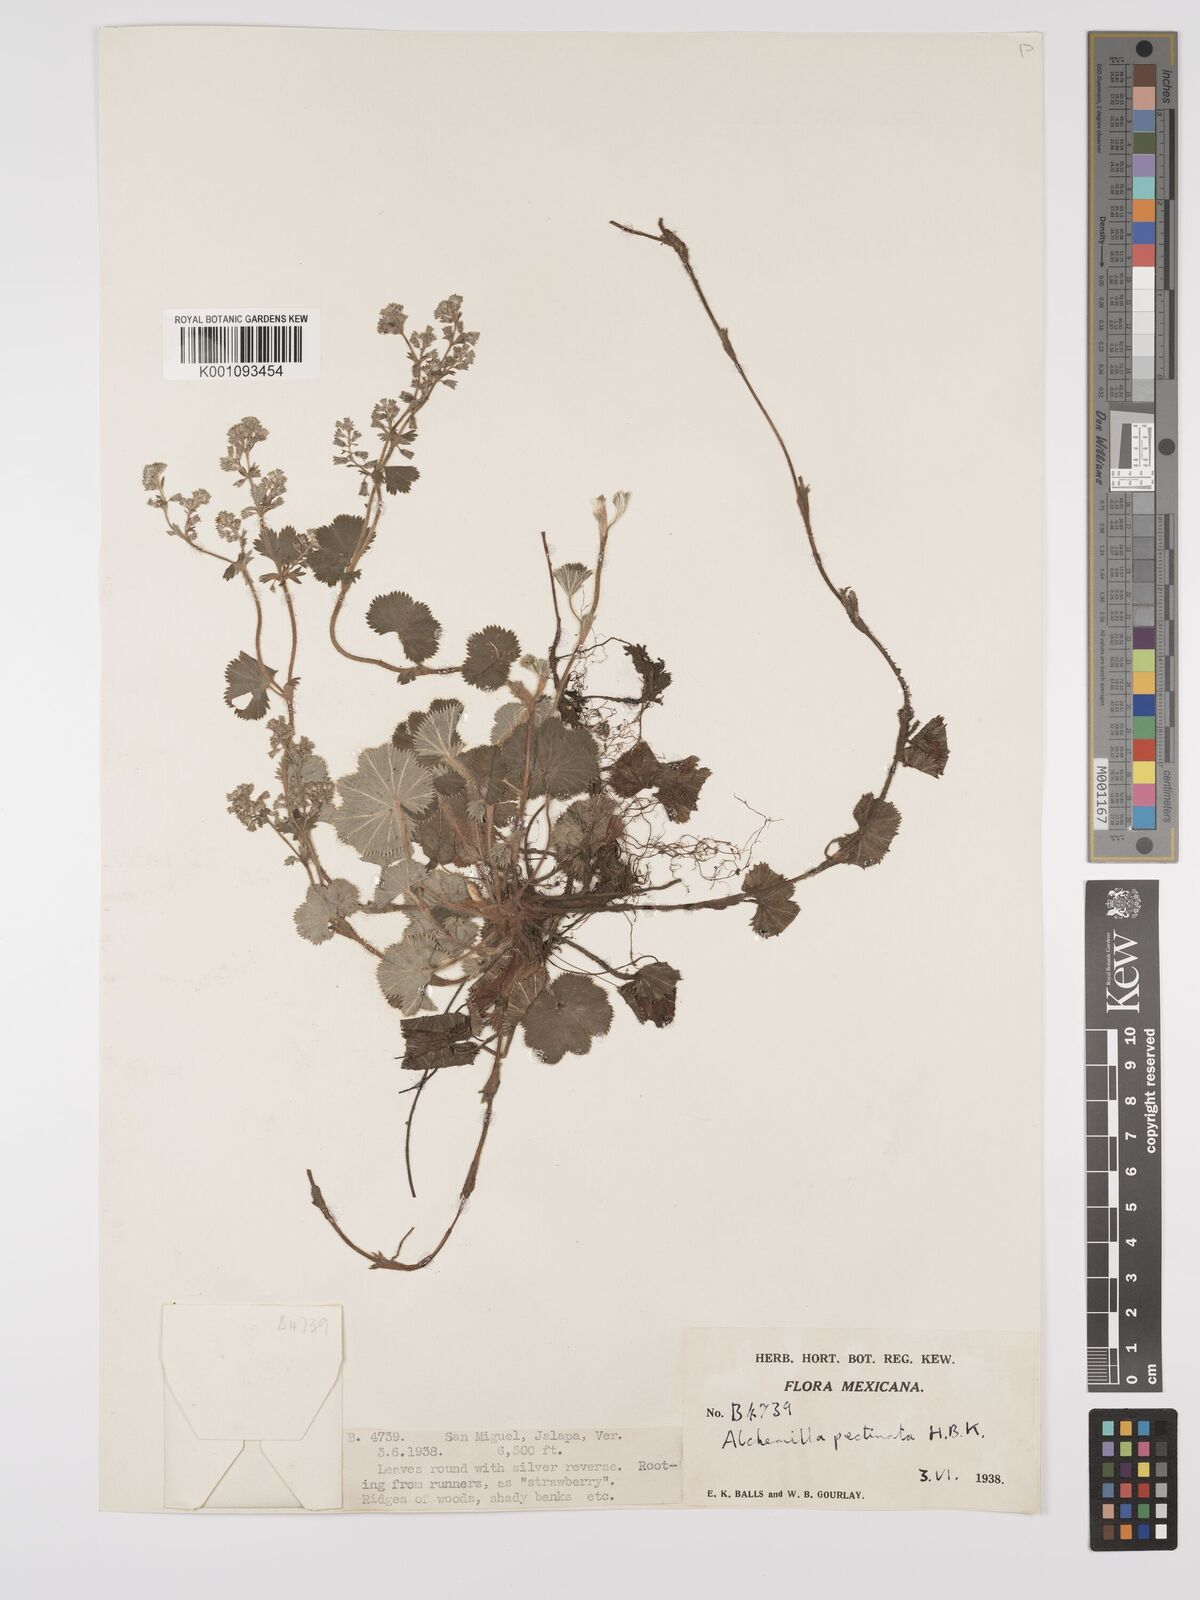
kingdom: Plantae
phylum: Tracheophyta
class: Magnoliopsida
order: Rosales
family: Rosaceae
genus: Lachemilla
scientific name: Lachemilla pectinata
